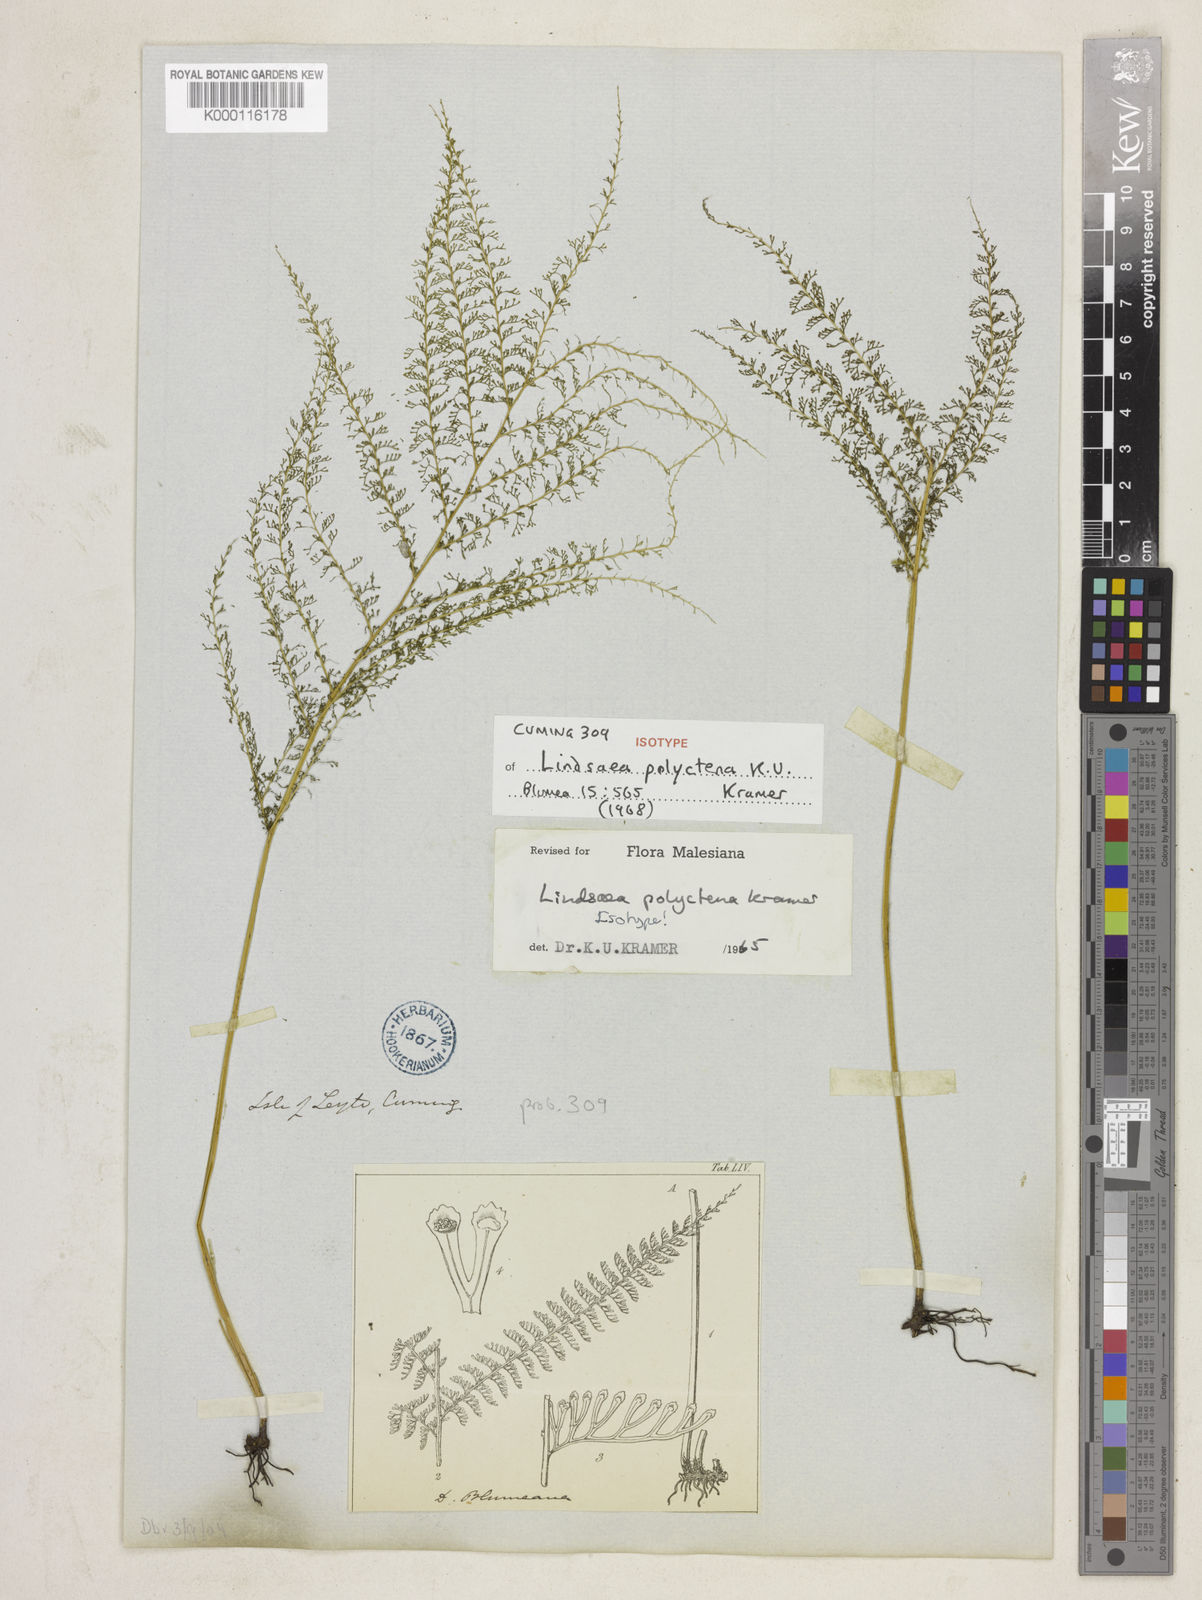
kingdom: Plantae
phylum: Tracheophyta
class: Polypodiopsida
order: Polypodiales
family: Lindsaeaceae
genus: Lindsaea
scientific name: Lindsaea tenuifolia
